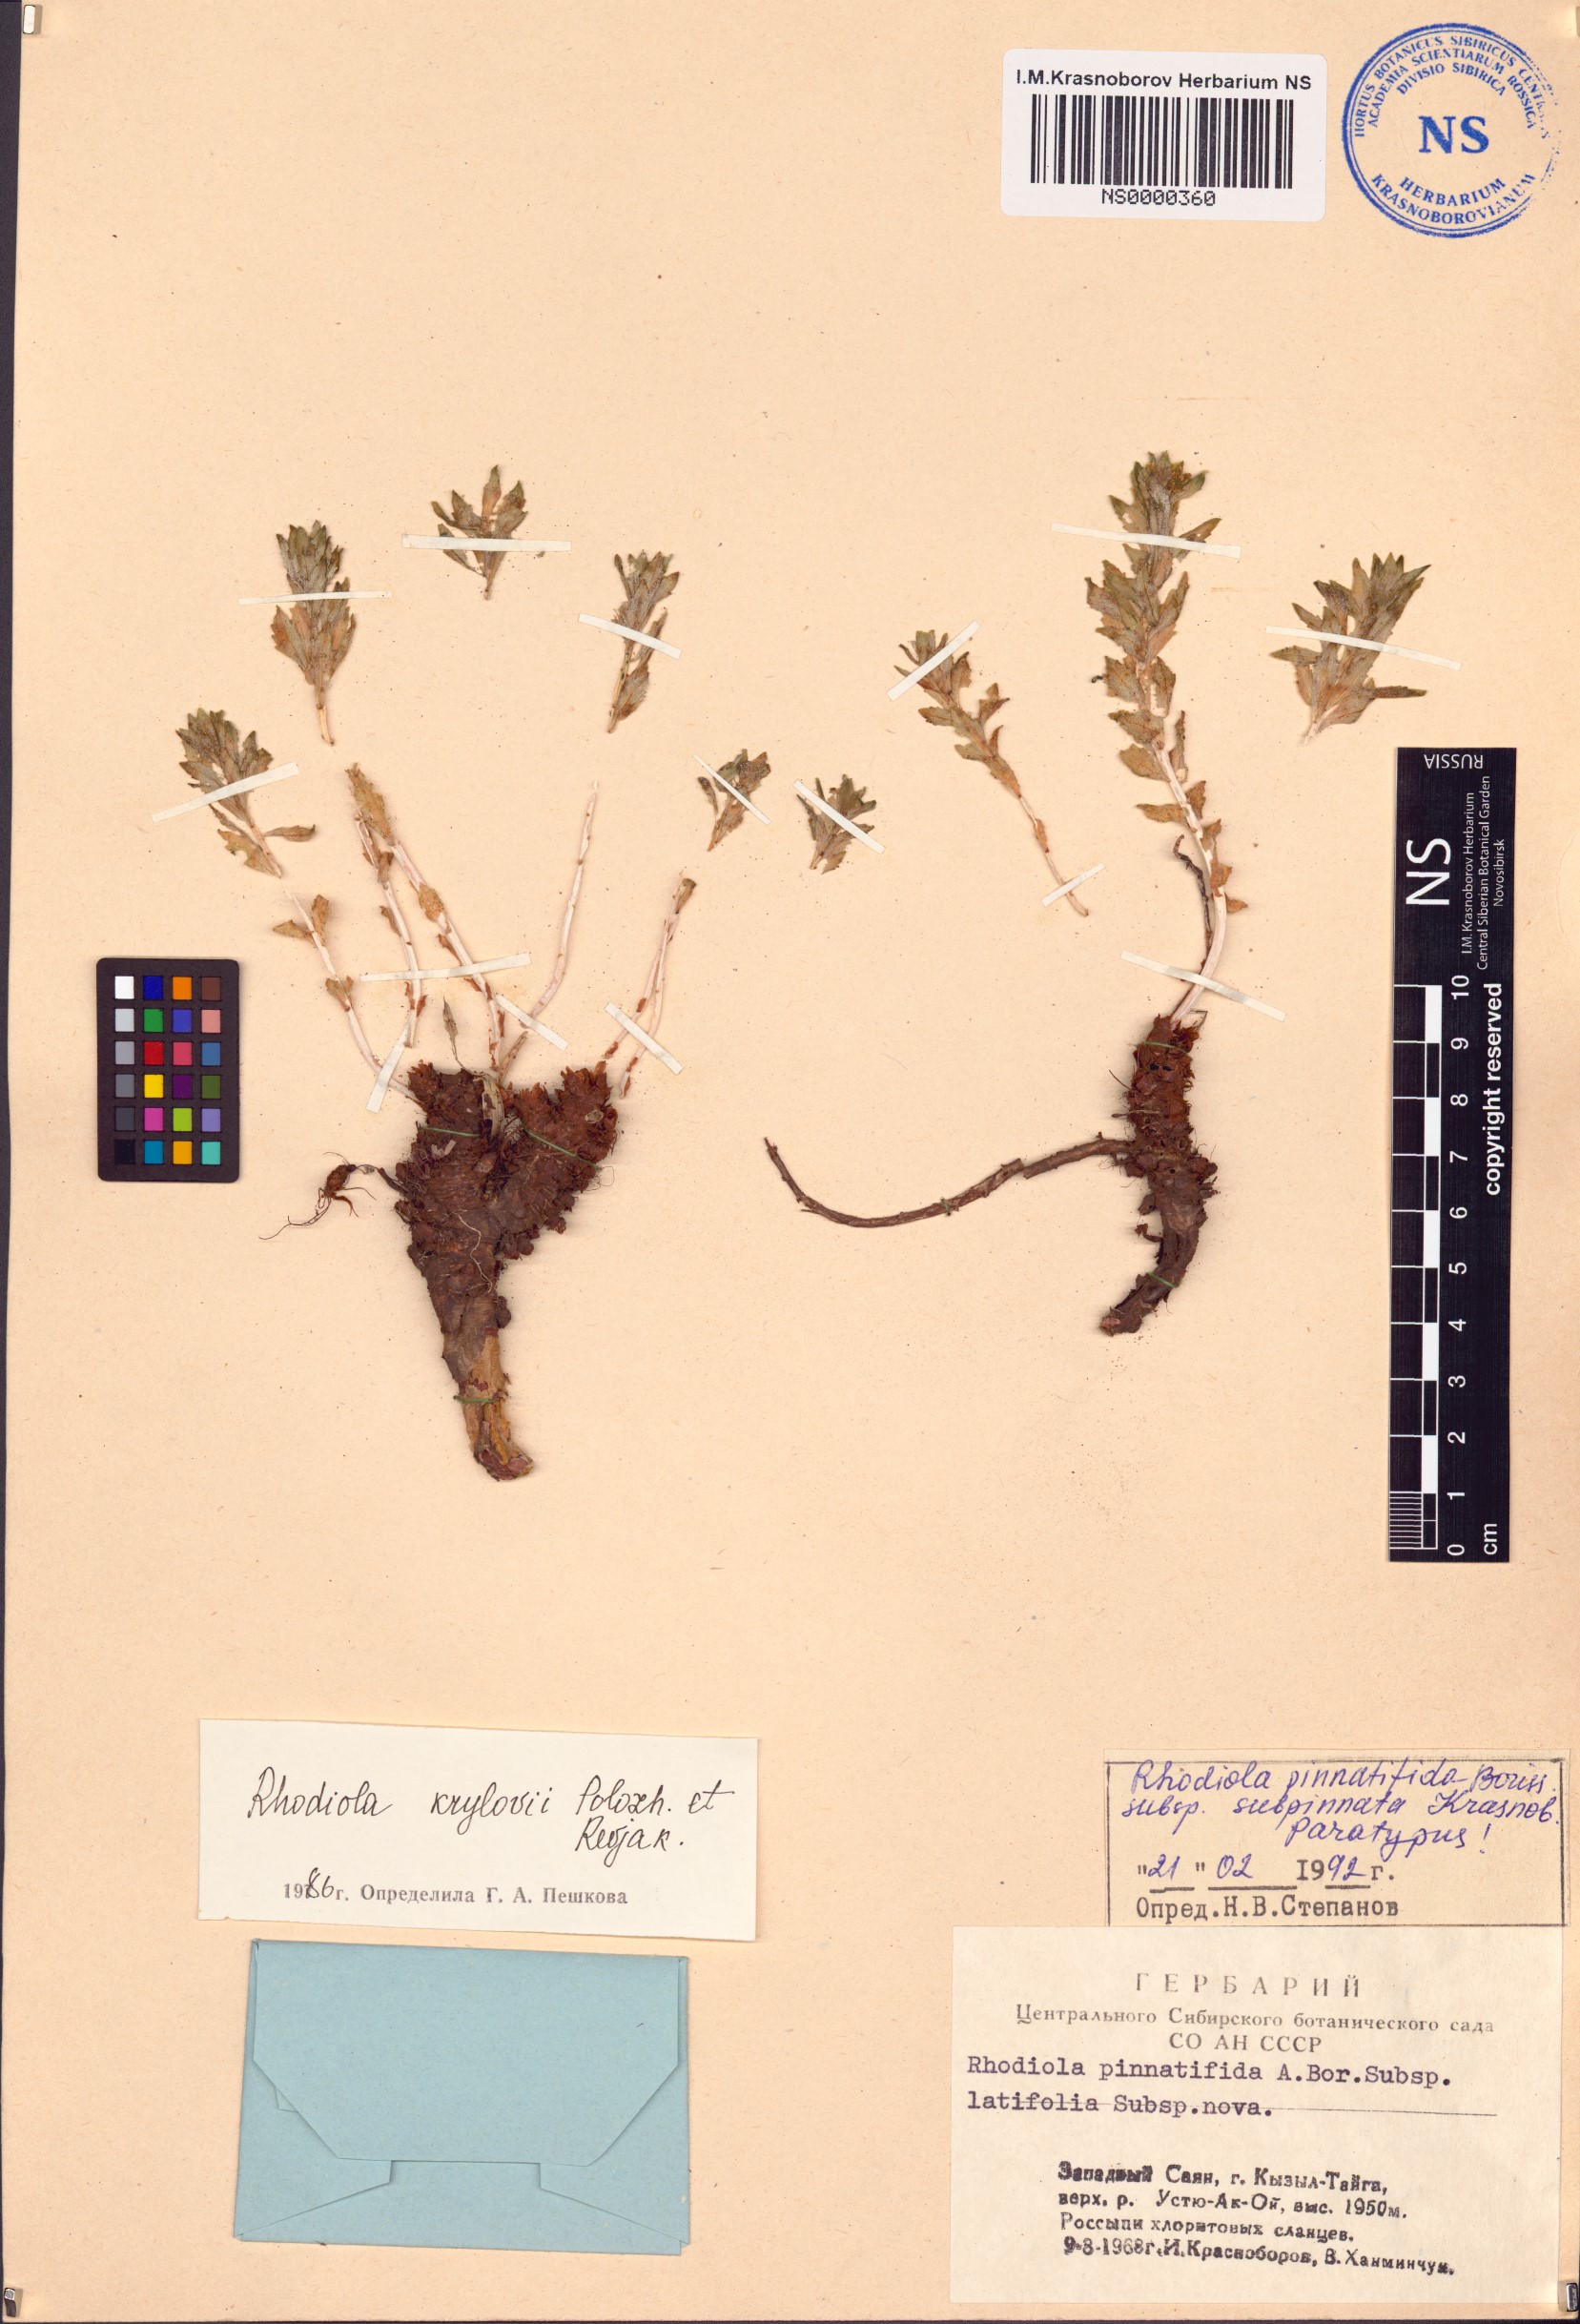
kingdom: Plantae
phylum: Tracheophyta
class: Magnoliopsida
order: Saxifragales
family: Crassulaceae
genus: Rhodiola
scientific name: Rhodiola stephani
